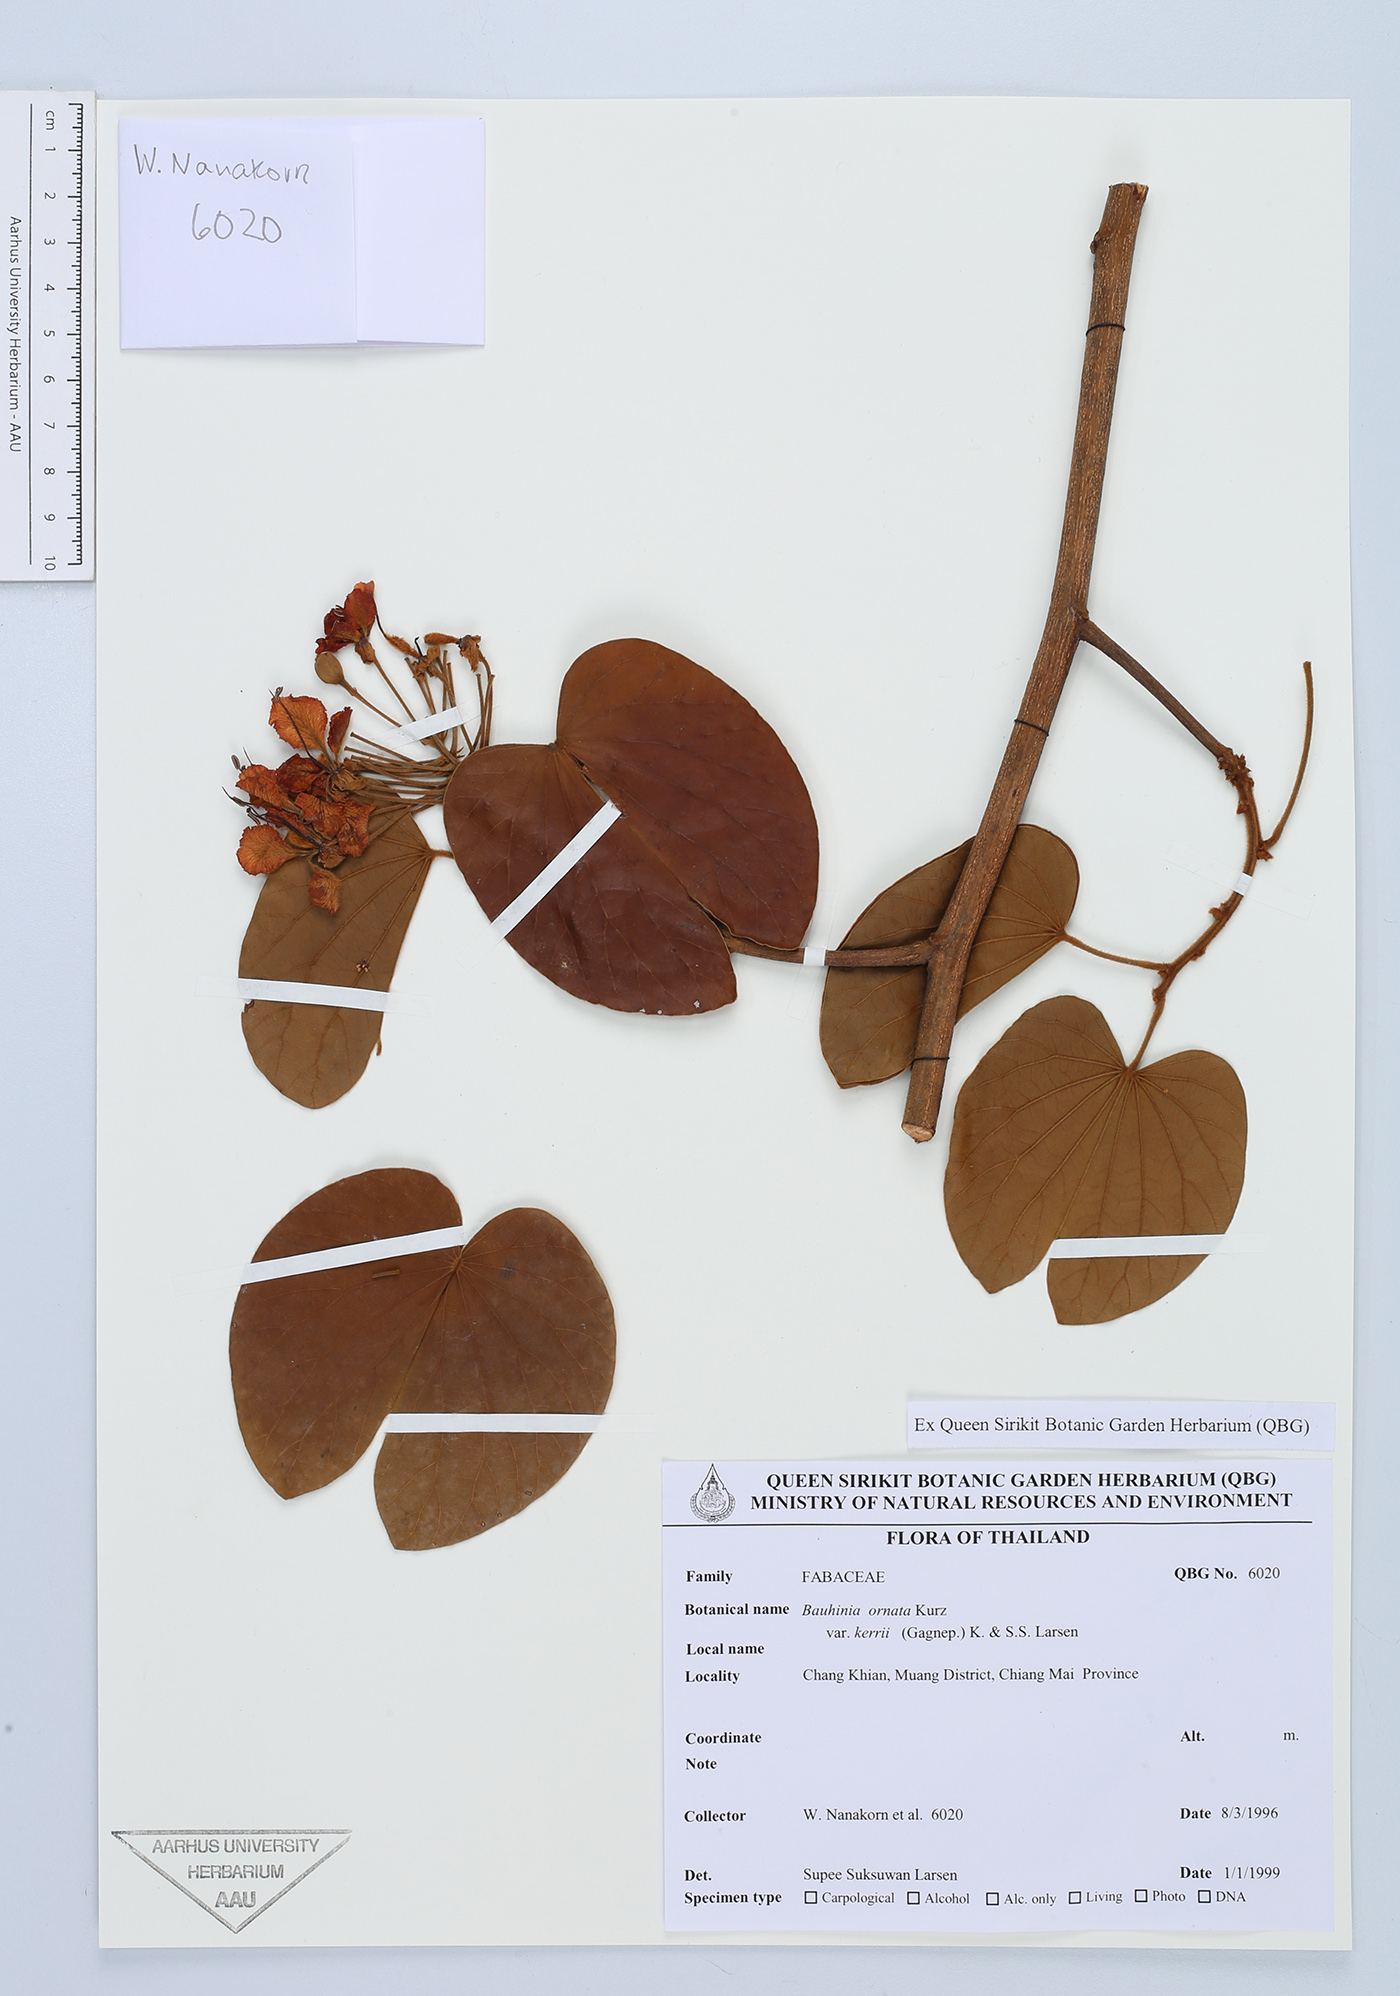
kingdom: Plantae
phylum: Tracheophyta
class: Magnoliopsida
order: Fabales
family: Fabaceae
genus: Phanera
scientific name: Phanera ornata
